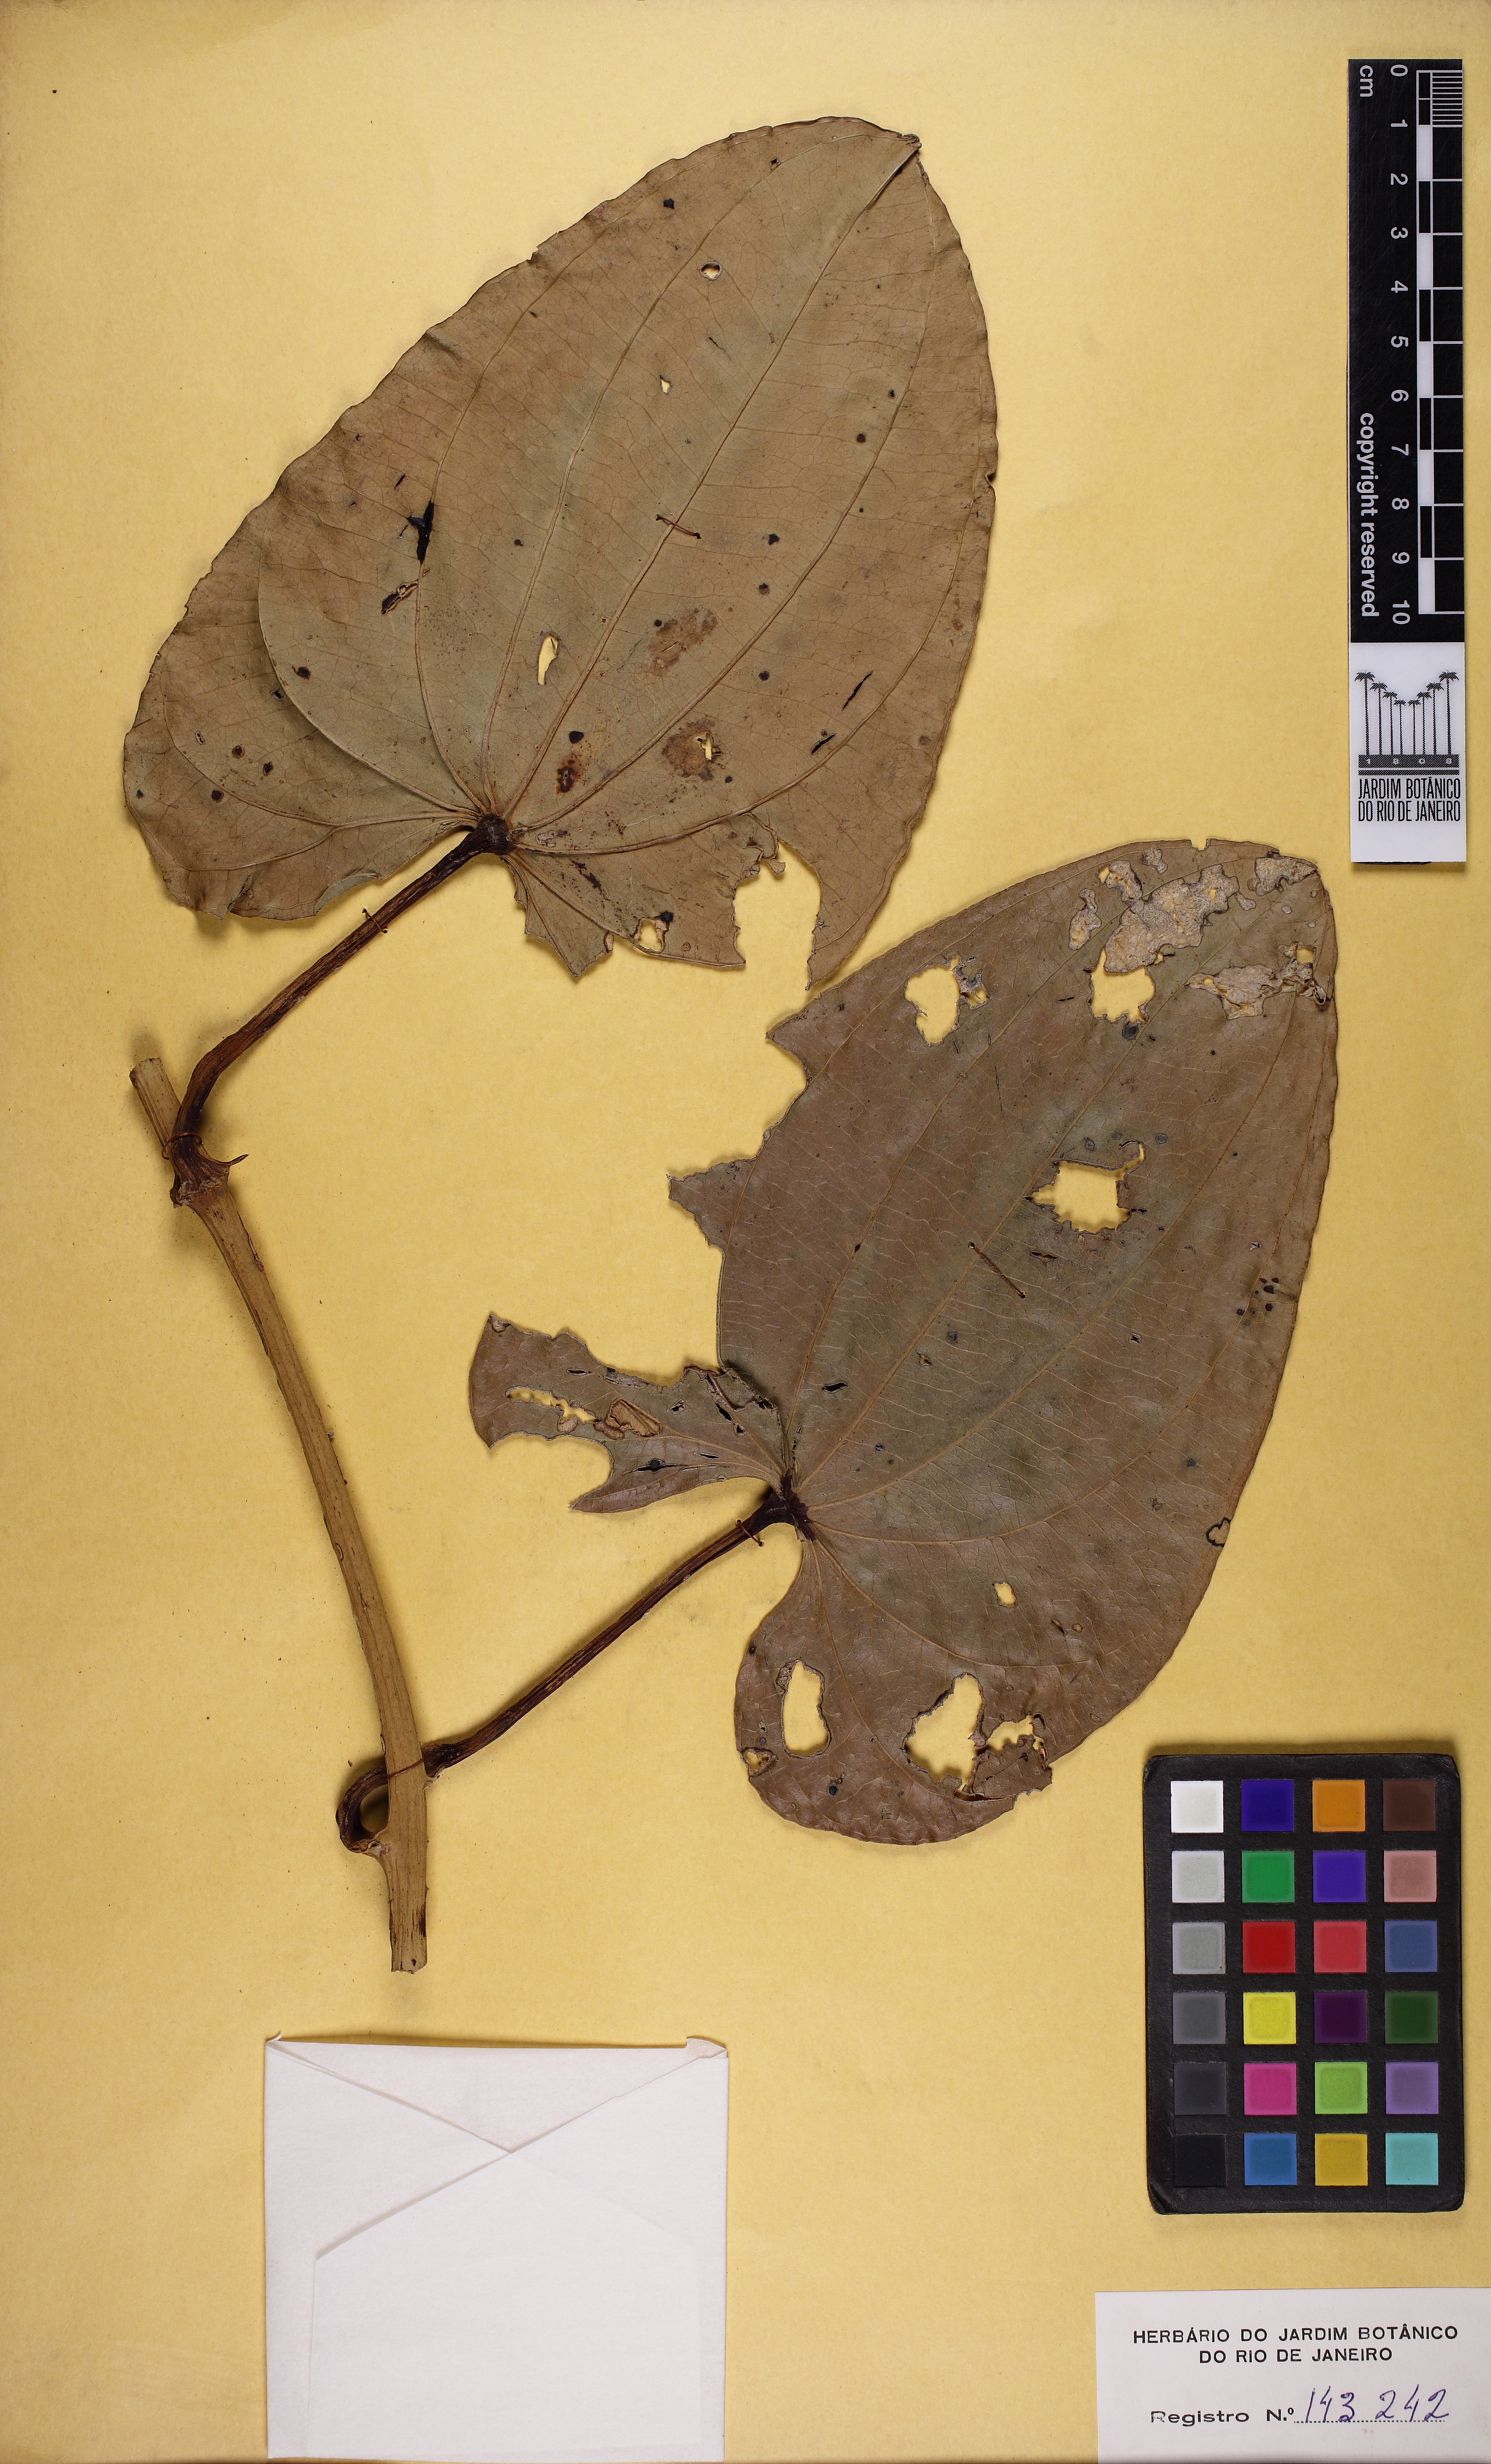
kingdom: Plantae
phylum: Tracheophyta
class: Liliopsida
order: Dioscoreales
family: Dioscoreaceae
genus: Dioscorea
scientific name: Dioscorea mollis
